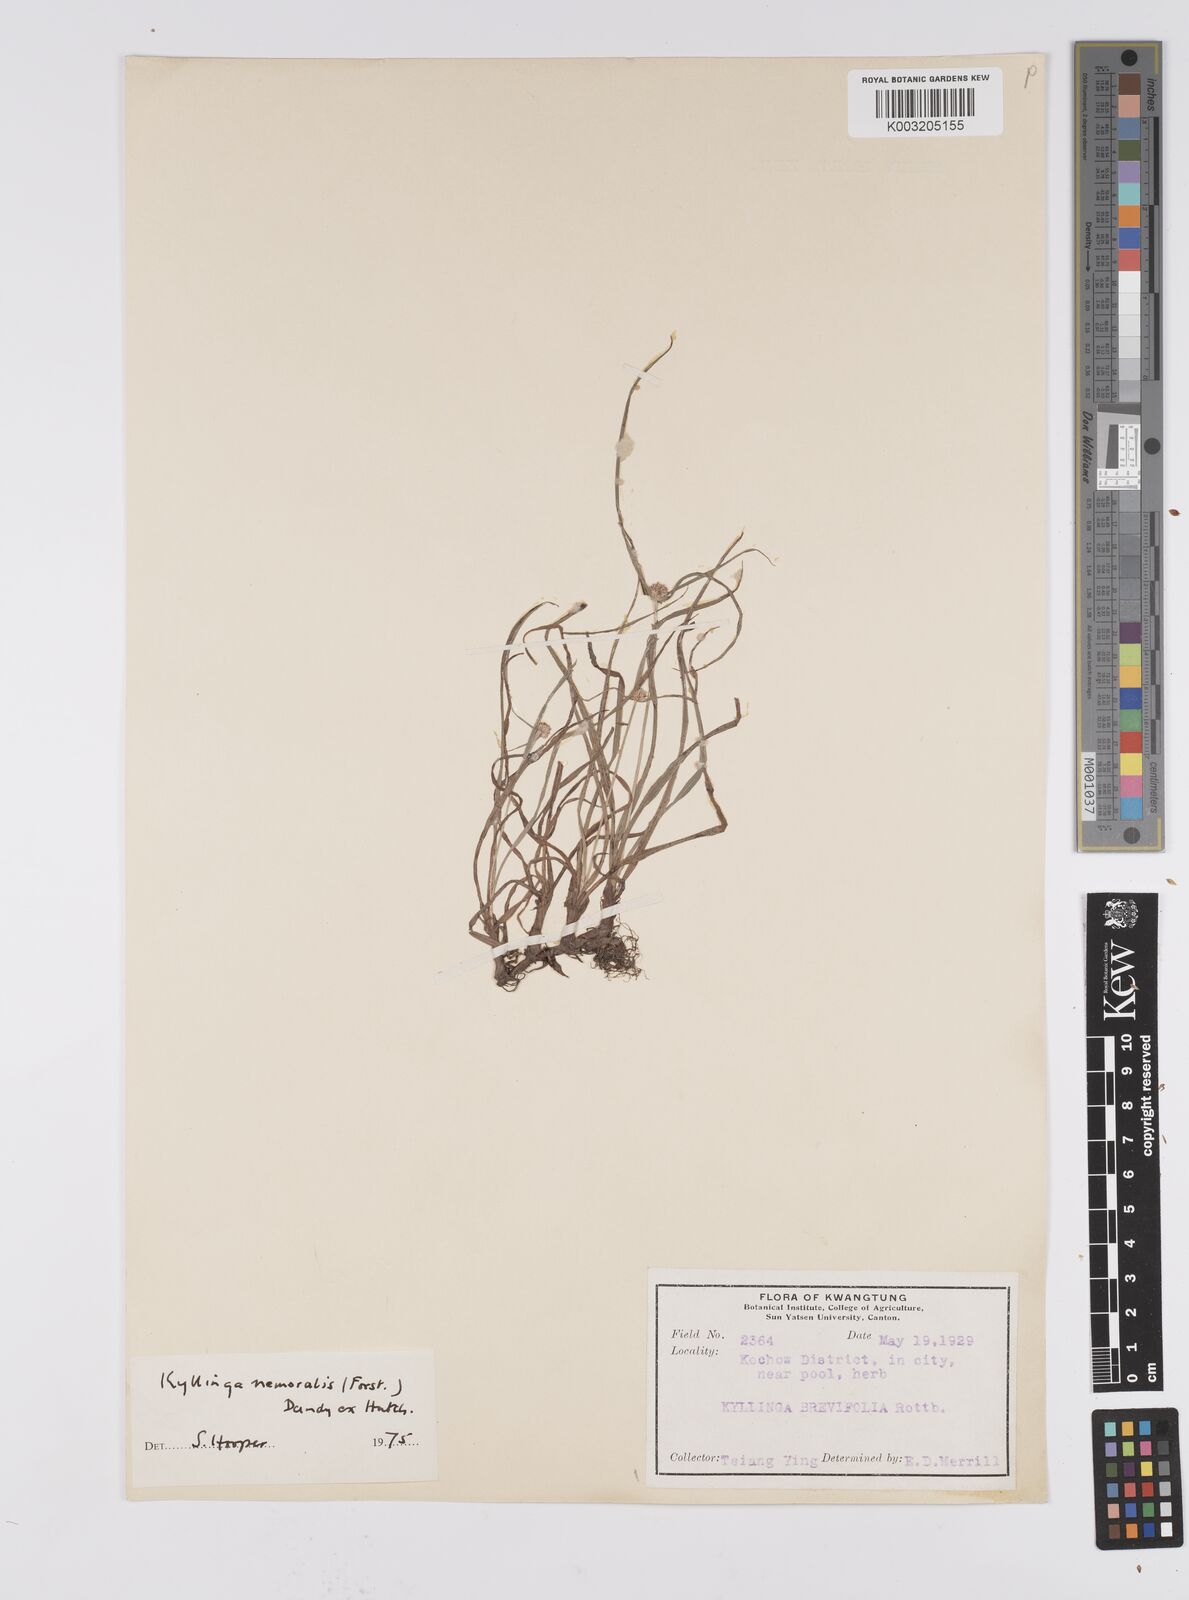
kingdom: Plantae
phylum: Tracheophyta
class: Liliopsida
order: Poales
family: Cyperaceae
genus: Cyperus
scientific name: Cyperus nemoralis
